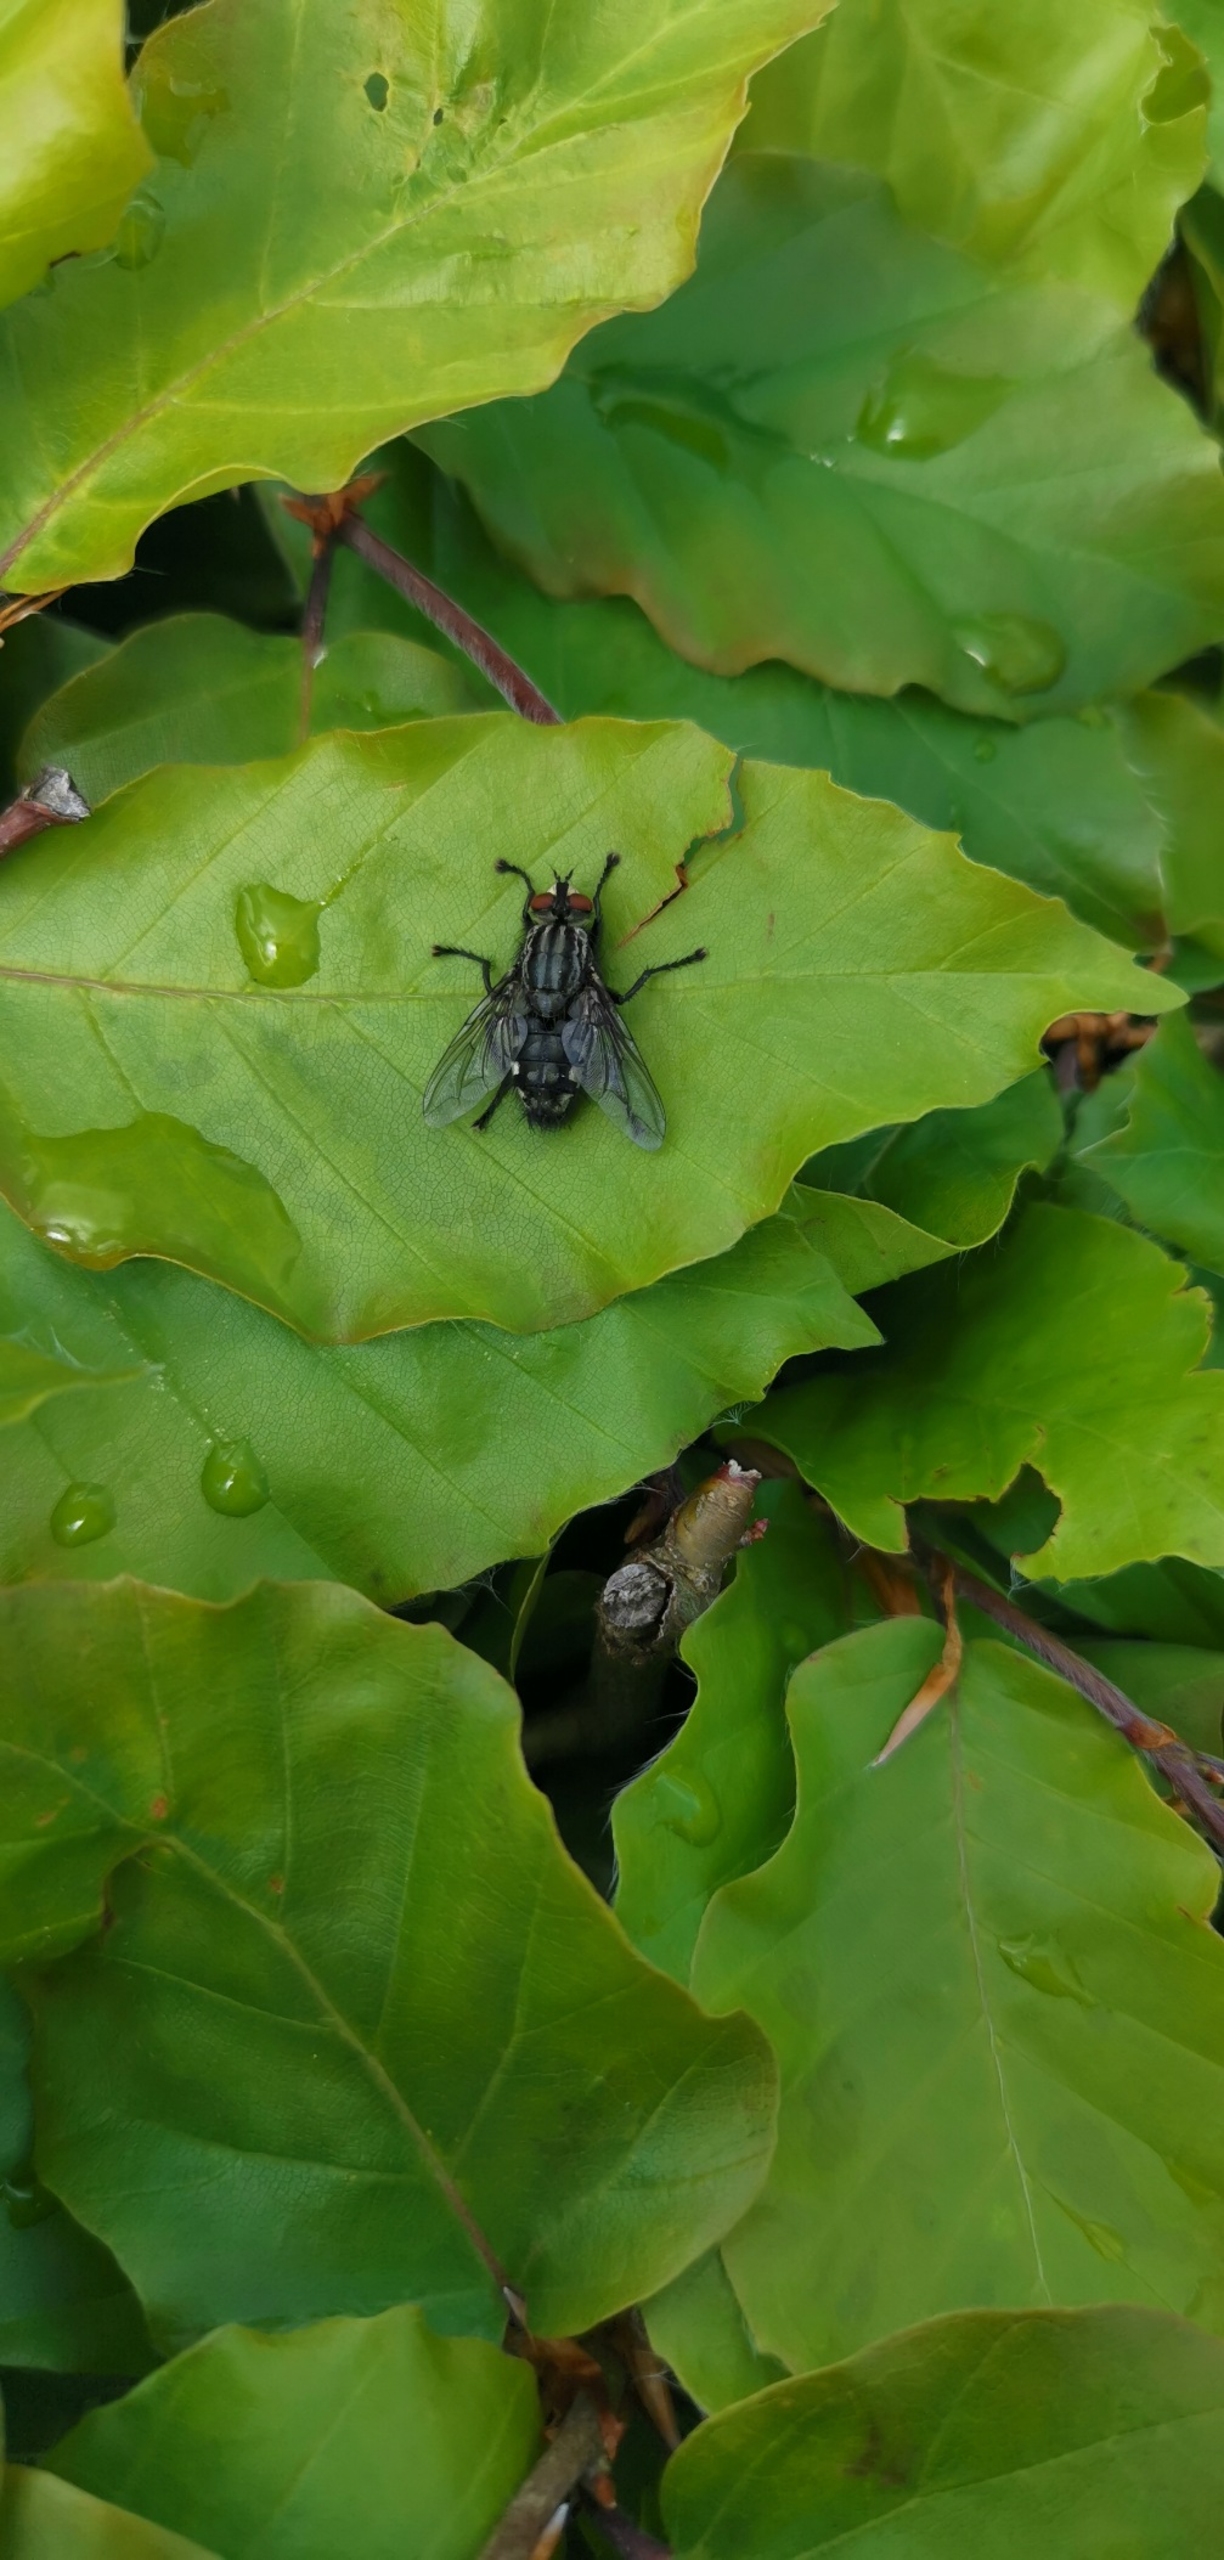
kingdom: Animalia
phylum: Arthropoda
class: Insecta
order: Diptera
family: Sarcophagidae
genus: Sarcophaga
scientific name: Sarcophaga
